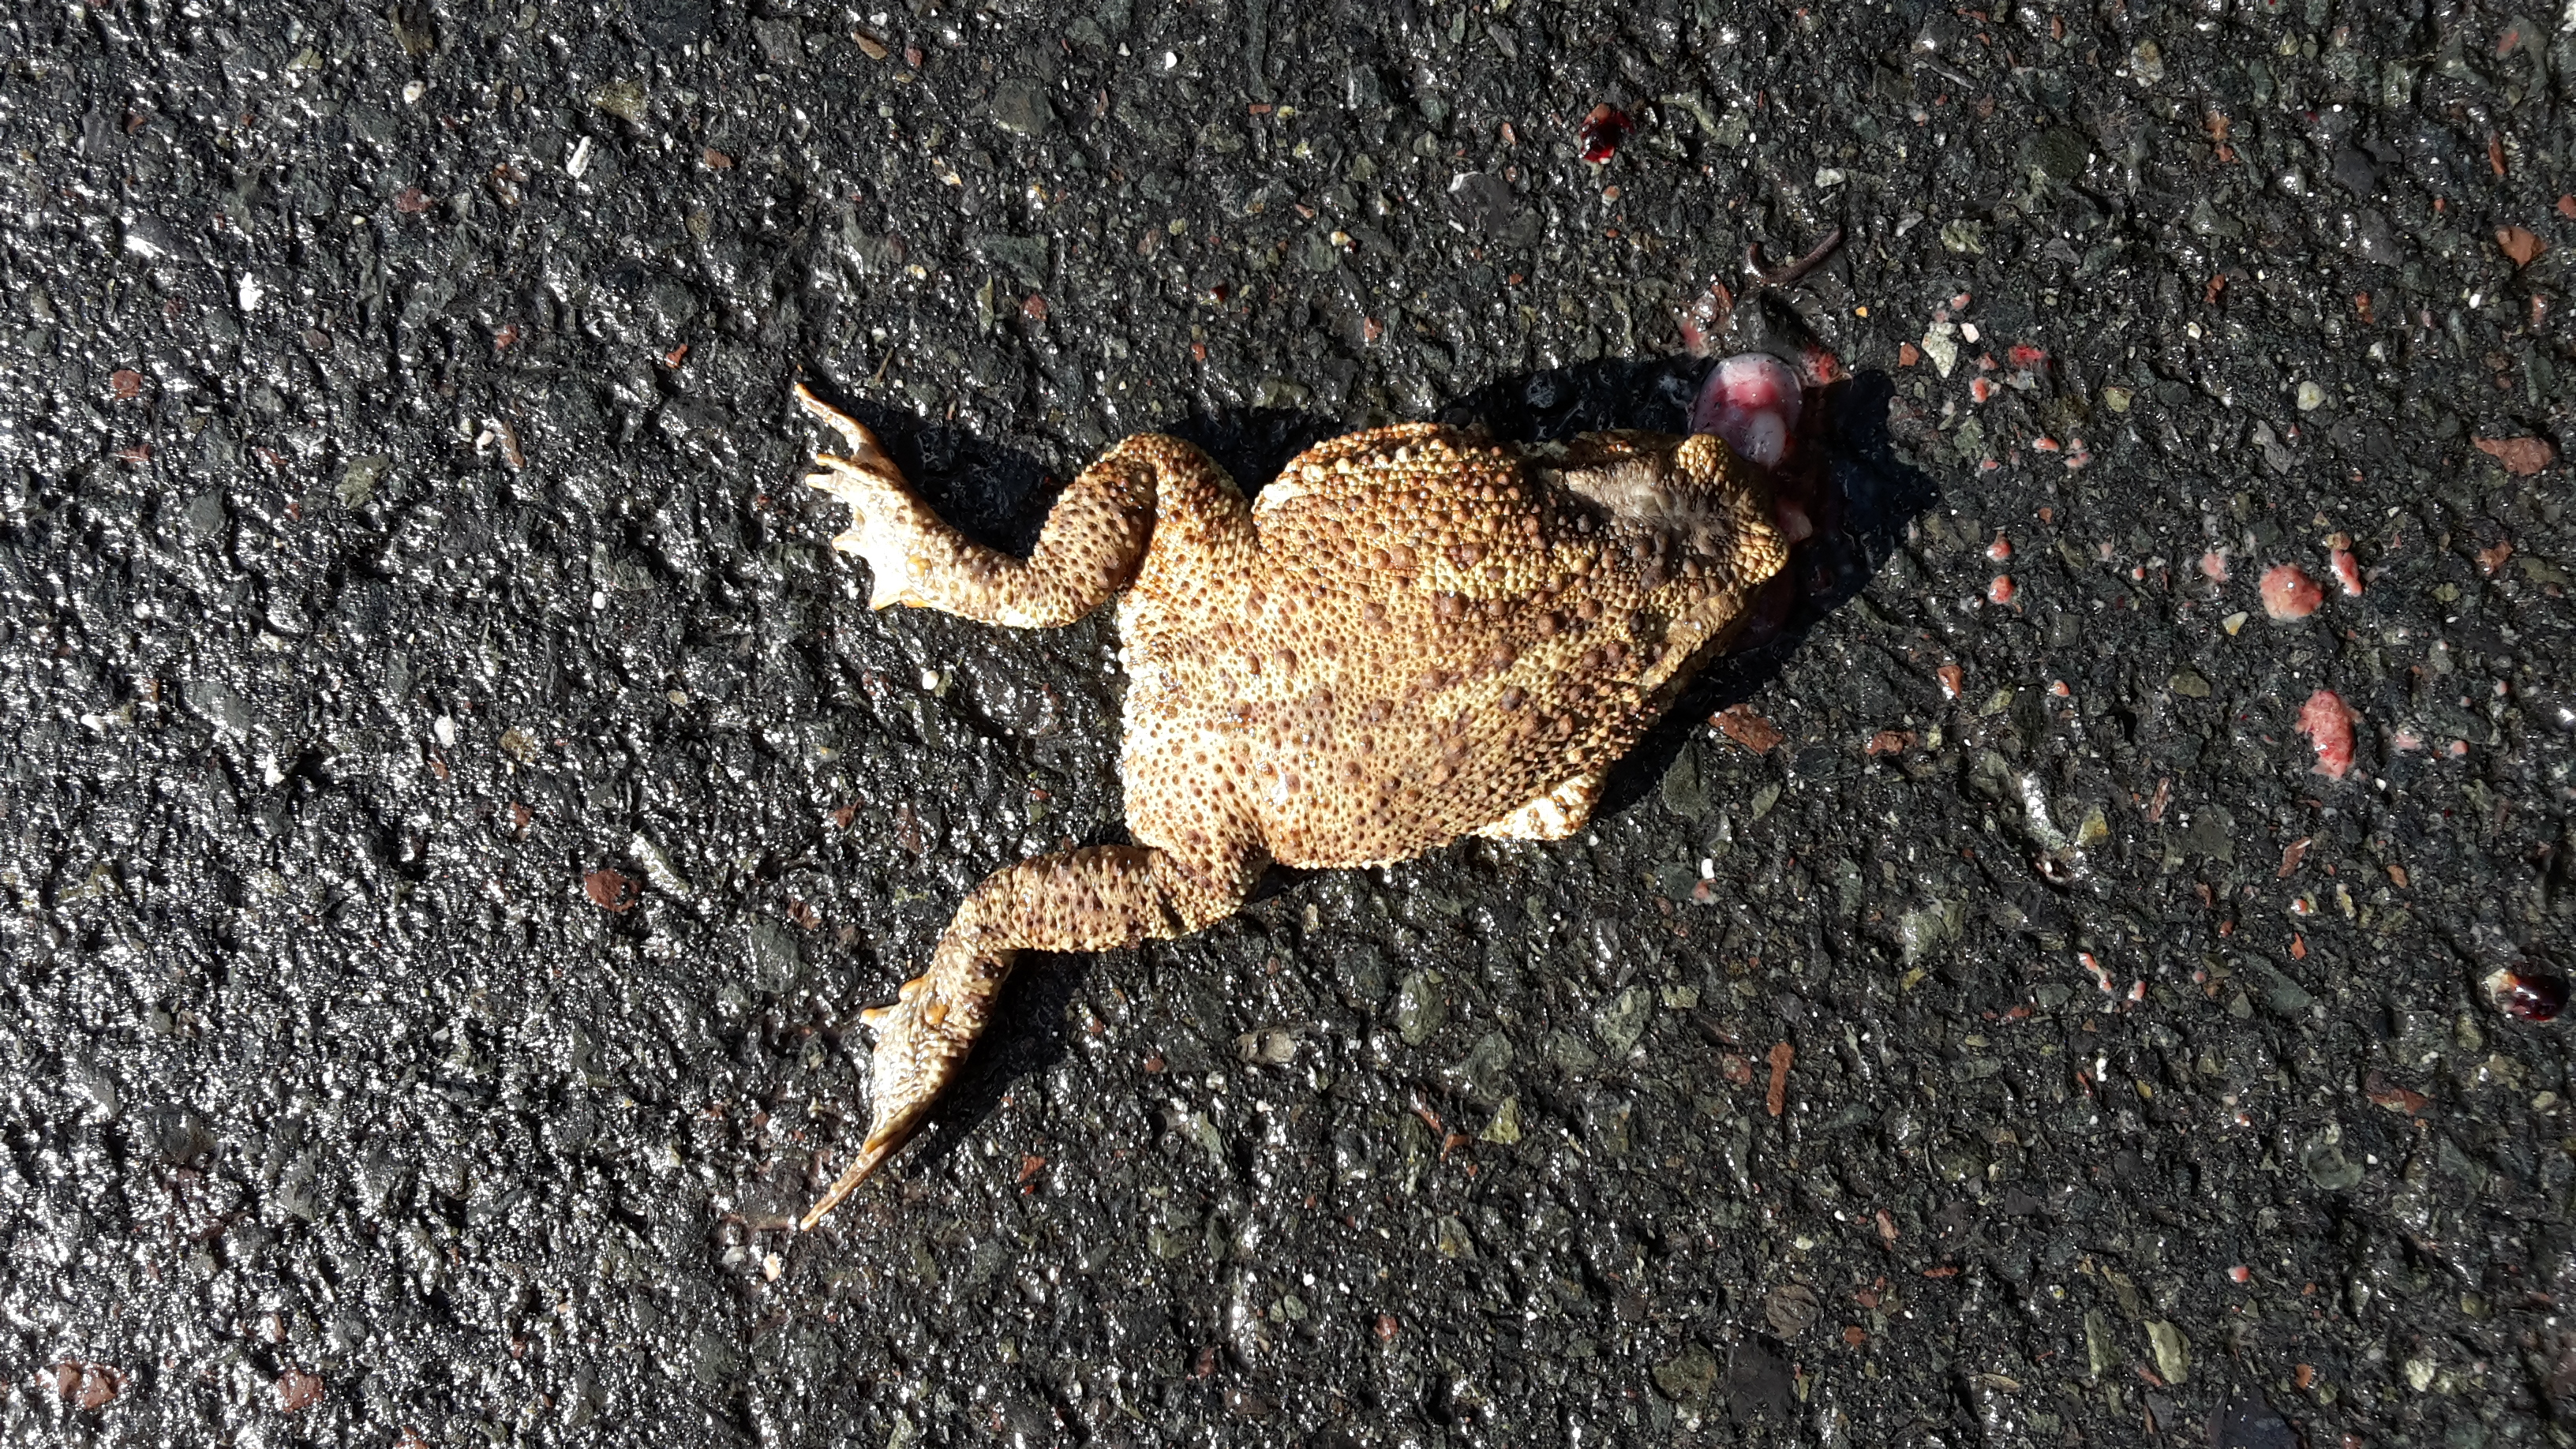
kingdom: Animalia
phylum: Chordata
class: Amphibia
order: Anura
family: Bufonidae
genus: Bufo
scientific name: Bufo bufo
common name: Common toad
